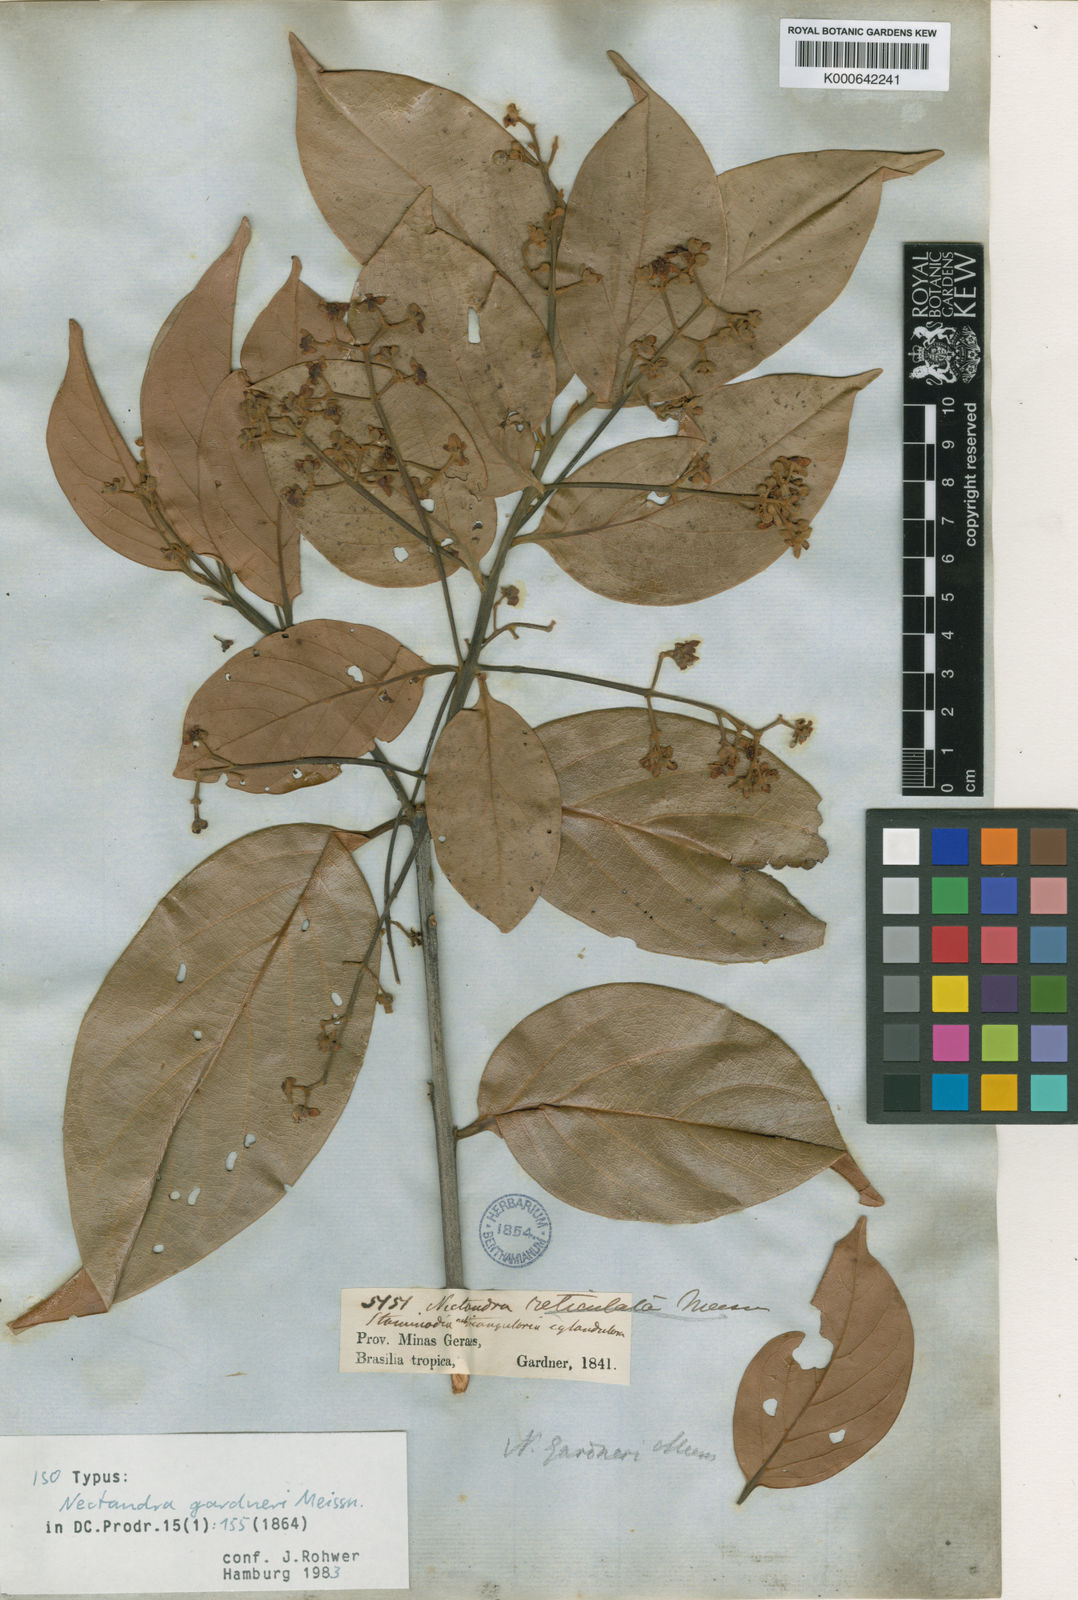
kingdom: Plantae
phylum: Tracheophyta
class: Magnoliopsida
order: Laurales
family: Lauraceae
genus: Nectandra
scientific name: Nectandra gardneri
